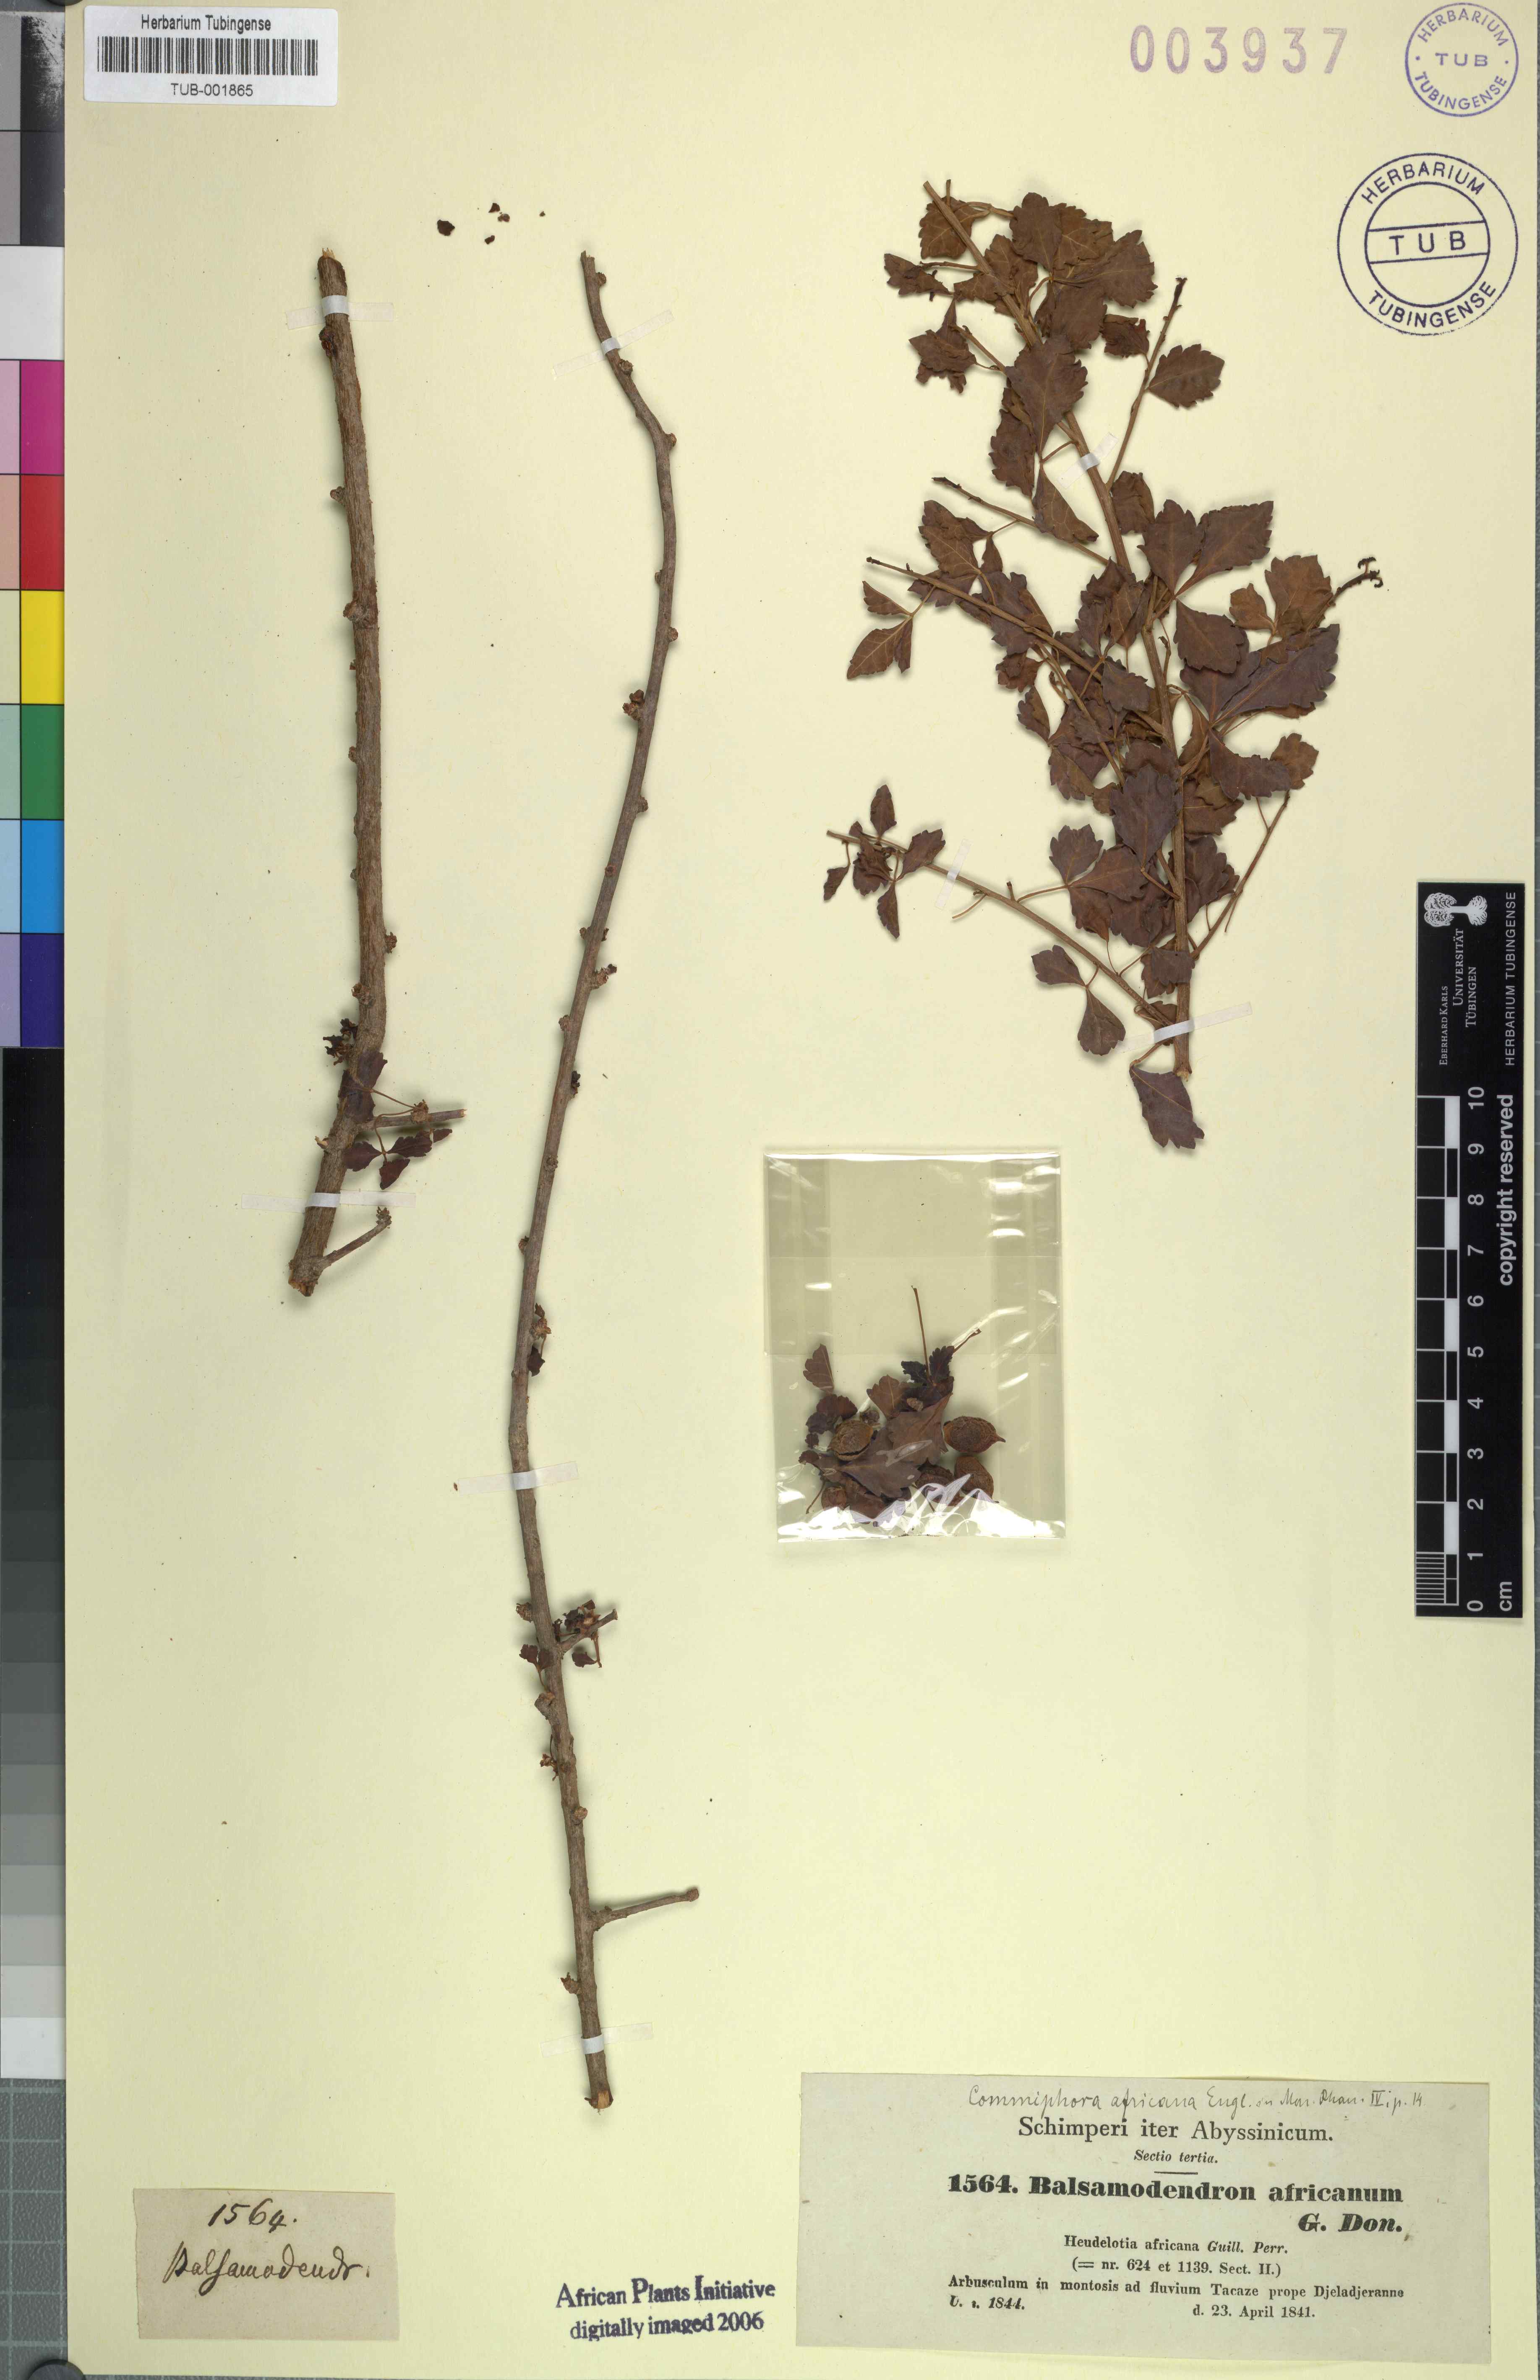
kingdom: Plantae
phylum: Tracheophyta
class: Magnoliopsida
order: Sapindales
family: Burseraceae
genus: Commiphora
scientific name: Commiphora africana
